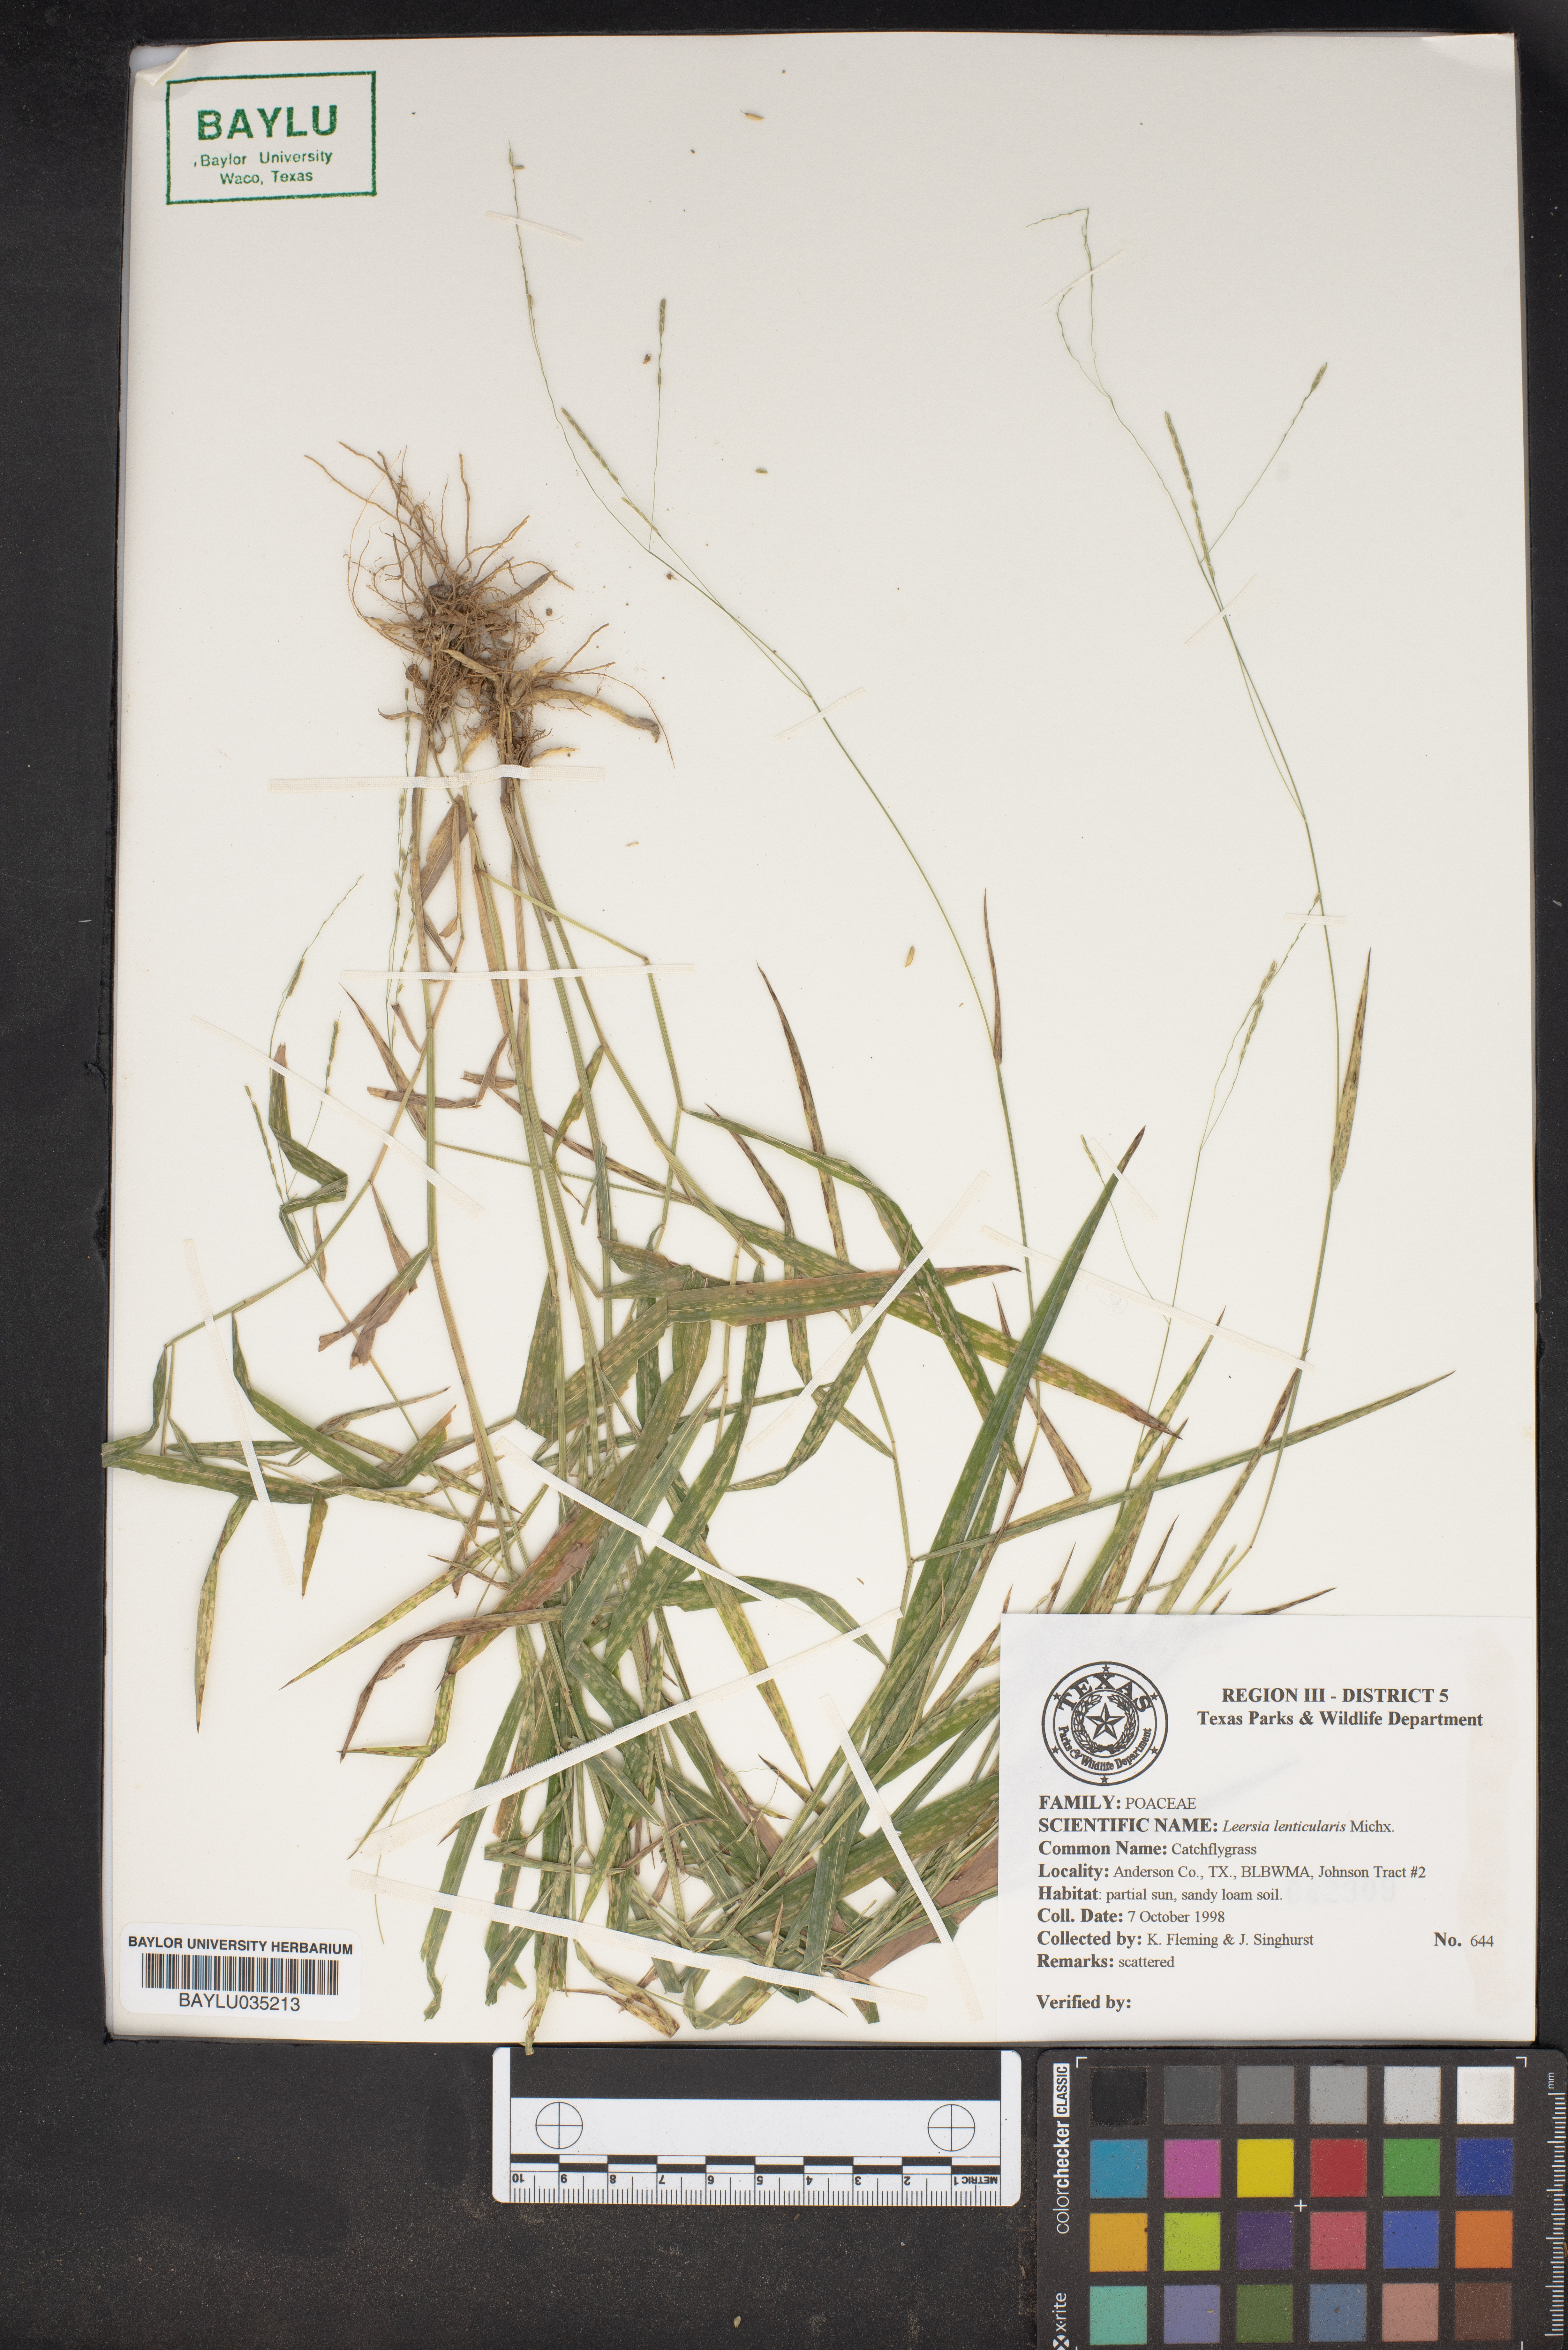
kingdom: Plantae
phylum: Tracheophyta
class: Liliopsida
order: Poales
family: Poaceae
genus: Leersia
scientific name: Leersia lenticularis
